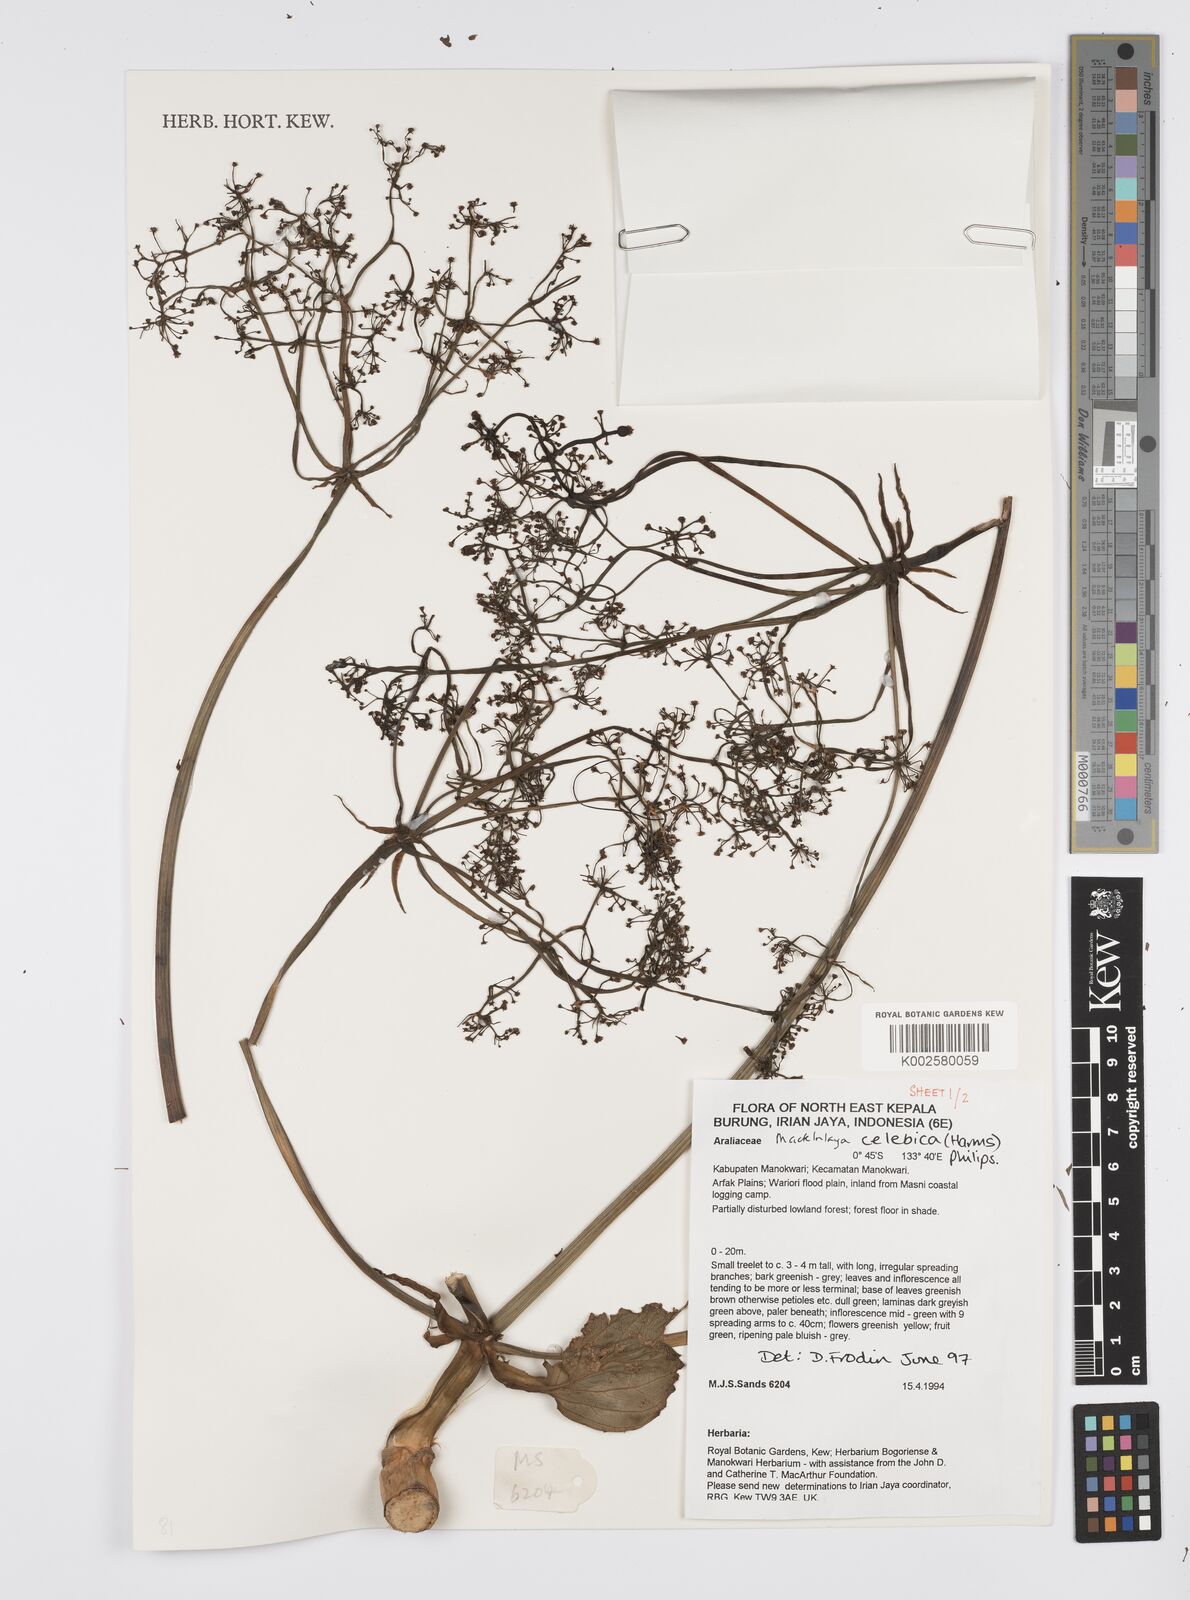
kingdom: Plantae
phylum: Tracheophyta
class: Magnoliopsida
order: Apiales
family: Apiaceae
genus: Mackinlaya
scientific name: Mackinlaya celebica
